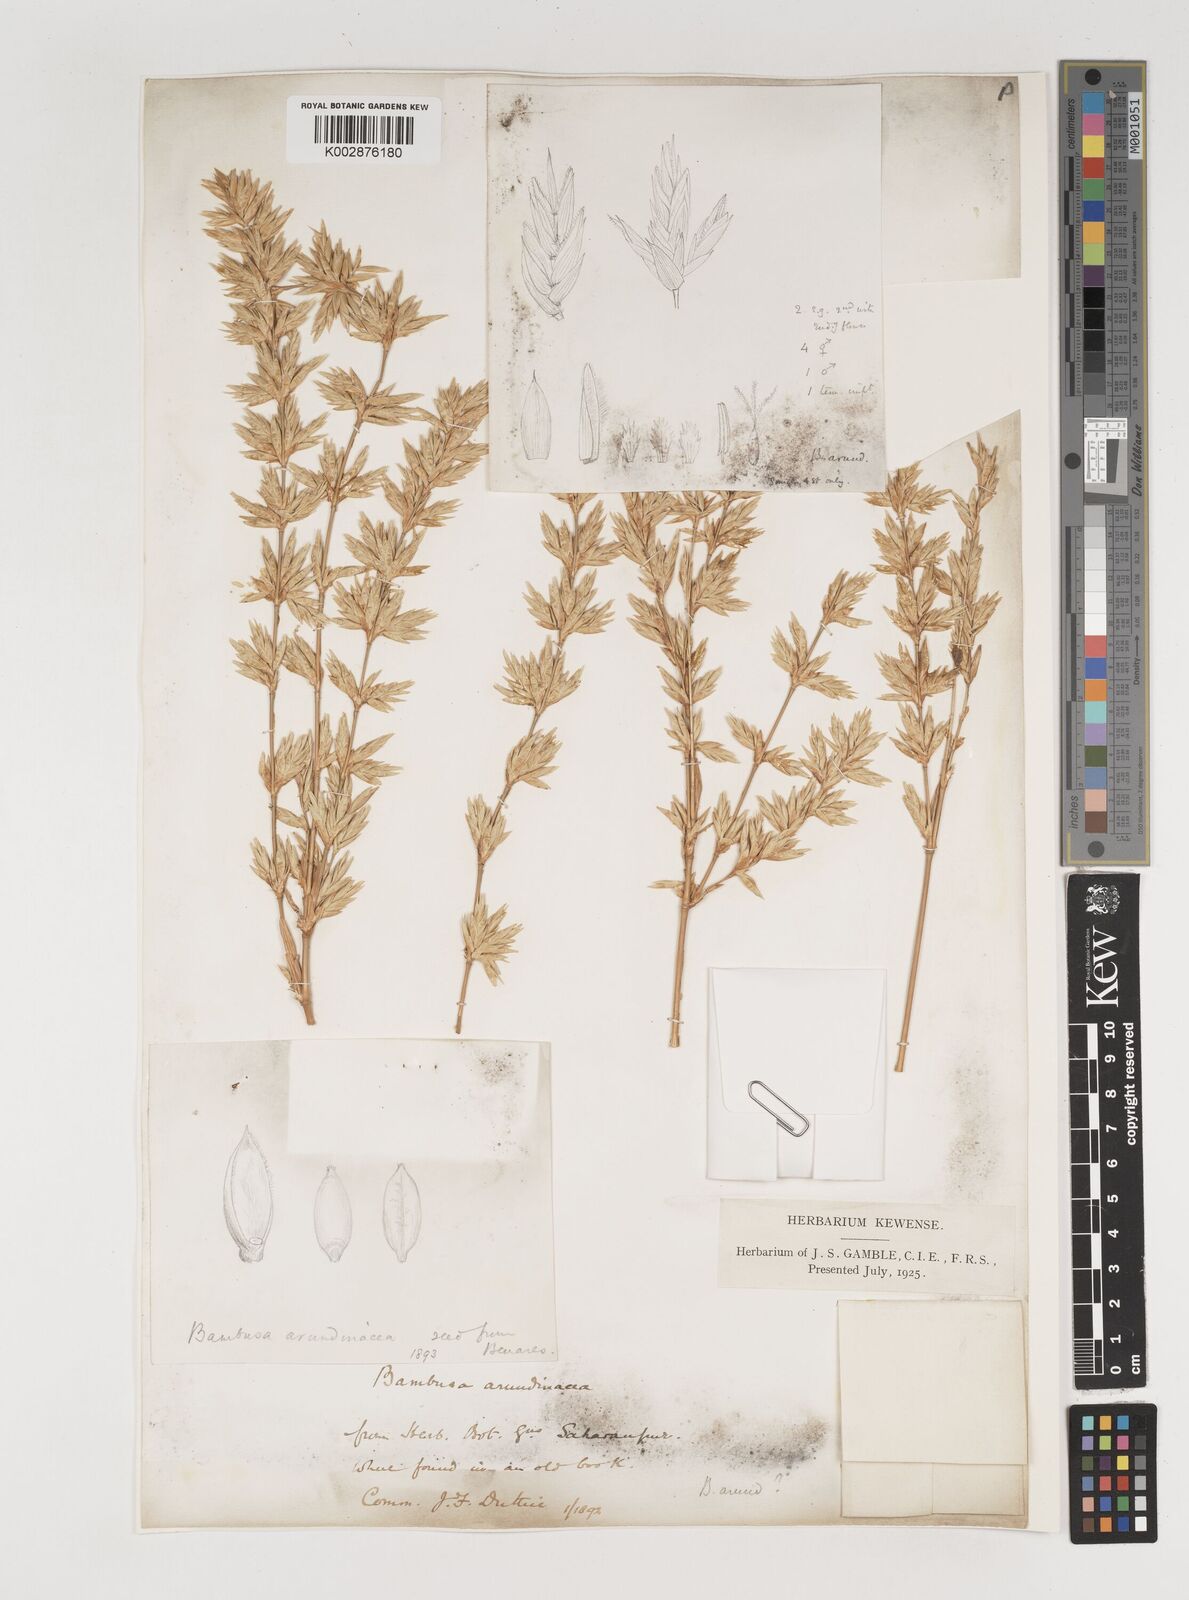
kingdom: Plantae
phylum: Tracheophyta
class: Liliopsida
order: Poales
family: Poaceae
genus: Bambusa
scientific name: Bambusa bambos
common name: Indian thorny bamboo
